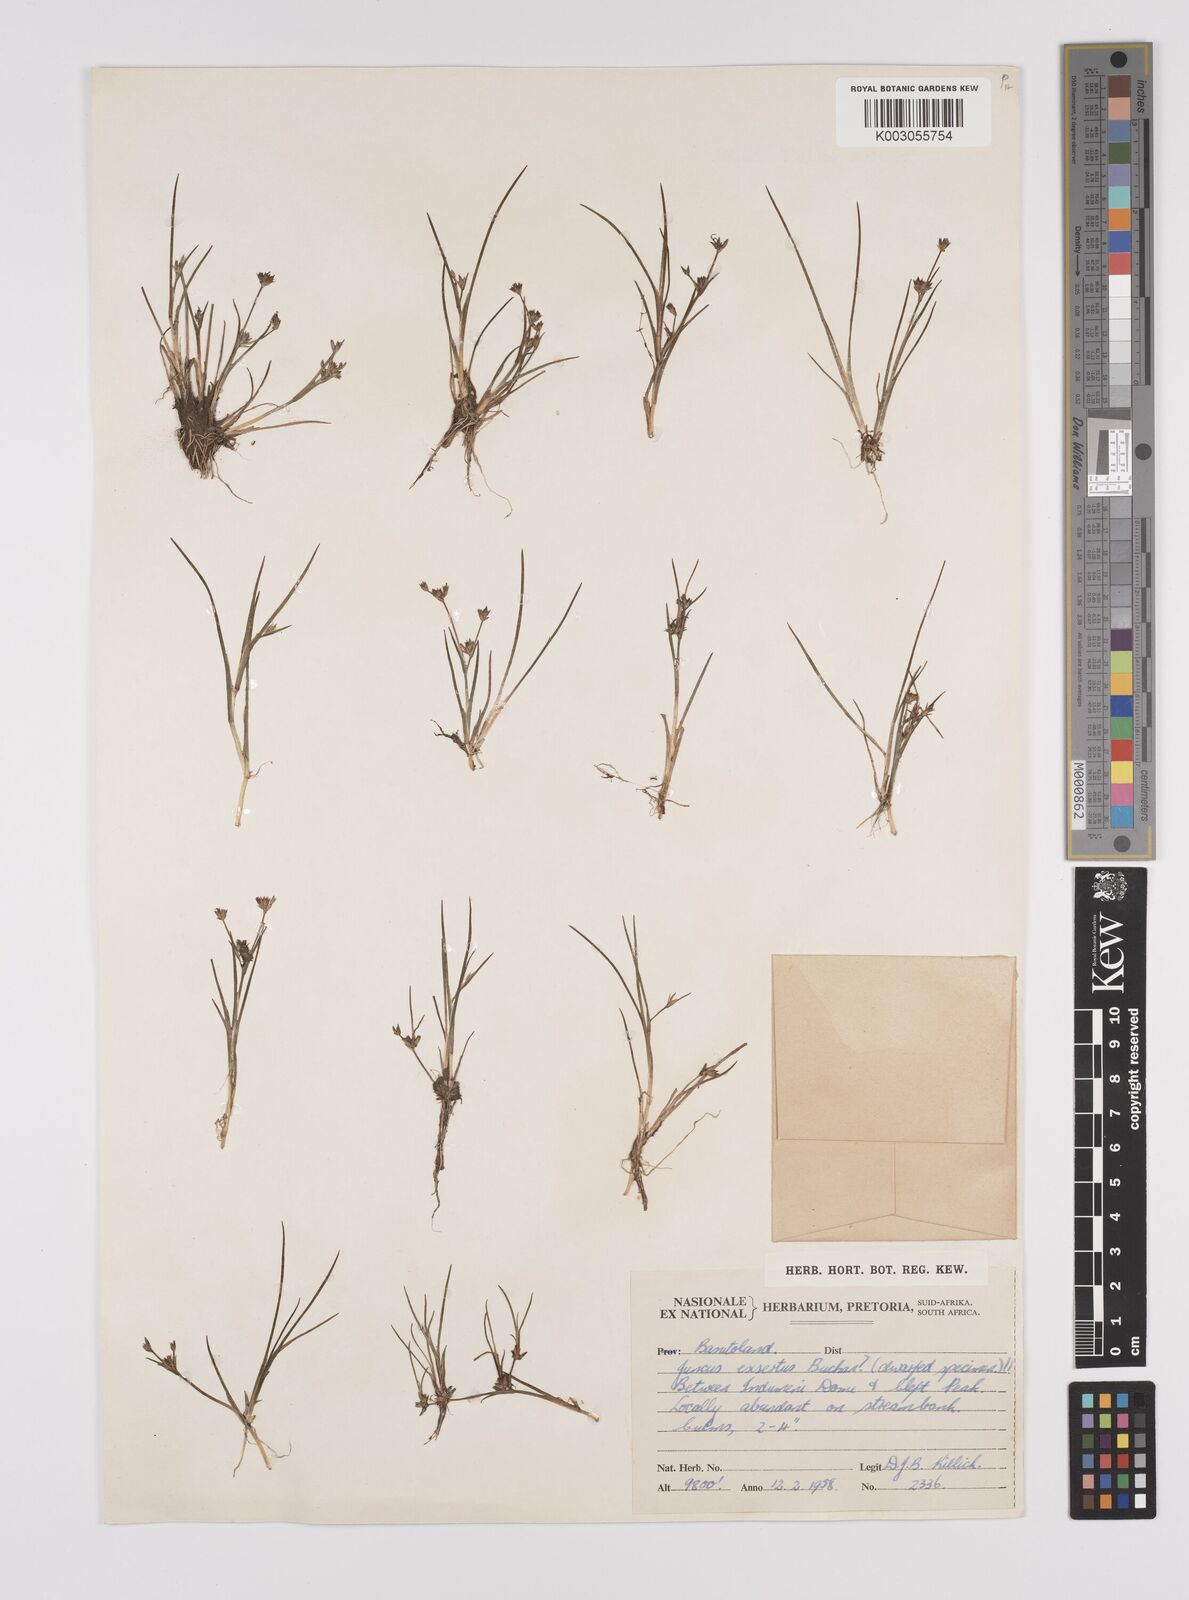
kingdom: Plantae
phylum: Tracheophyta
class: Liliopsida
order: Poales
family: Juncaceae
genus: Juncus
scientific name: Juncus exsertus
